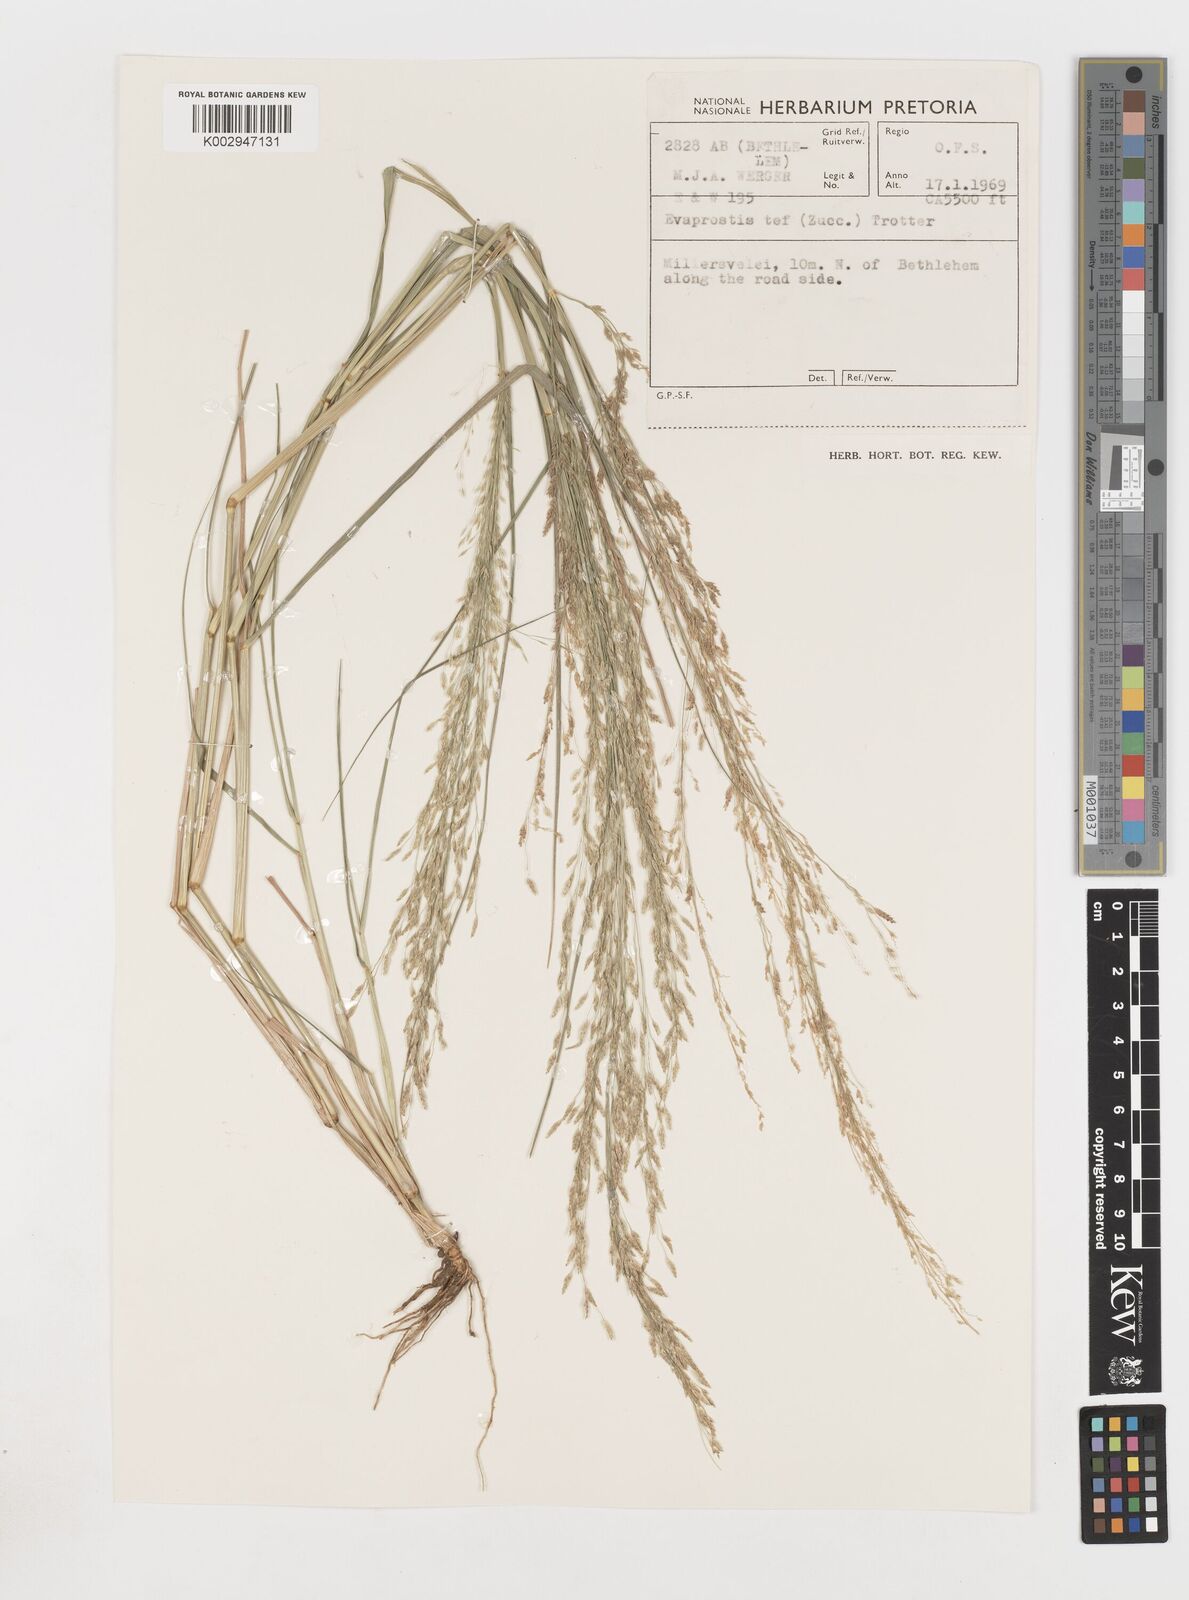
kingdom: Plantae
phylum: Tracheophyta
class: Liliopsida
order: Poales
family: Poaceae
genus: Eragrostis
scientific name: Eragrostis tef
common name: Teff
